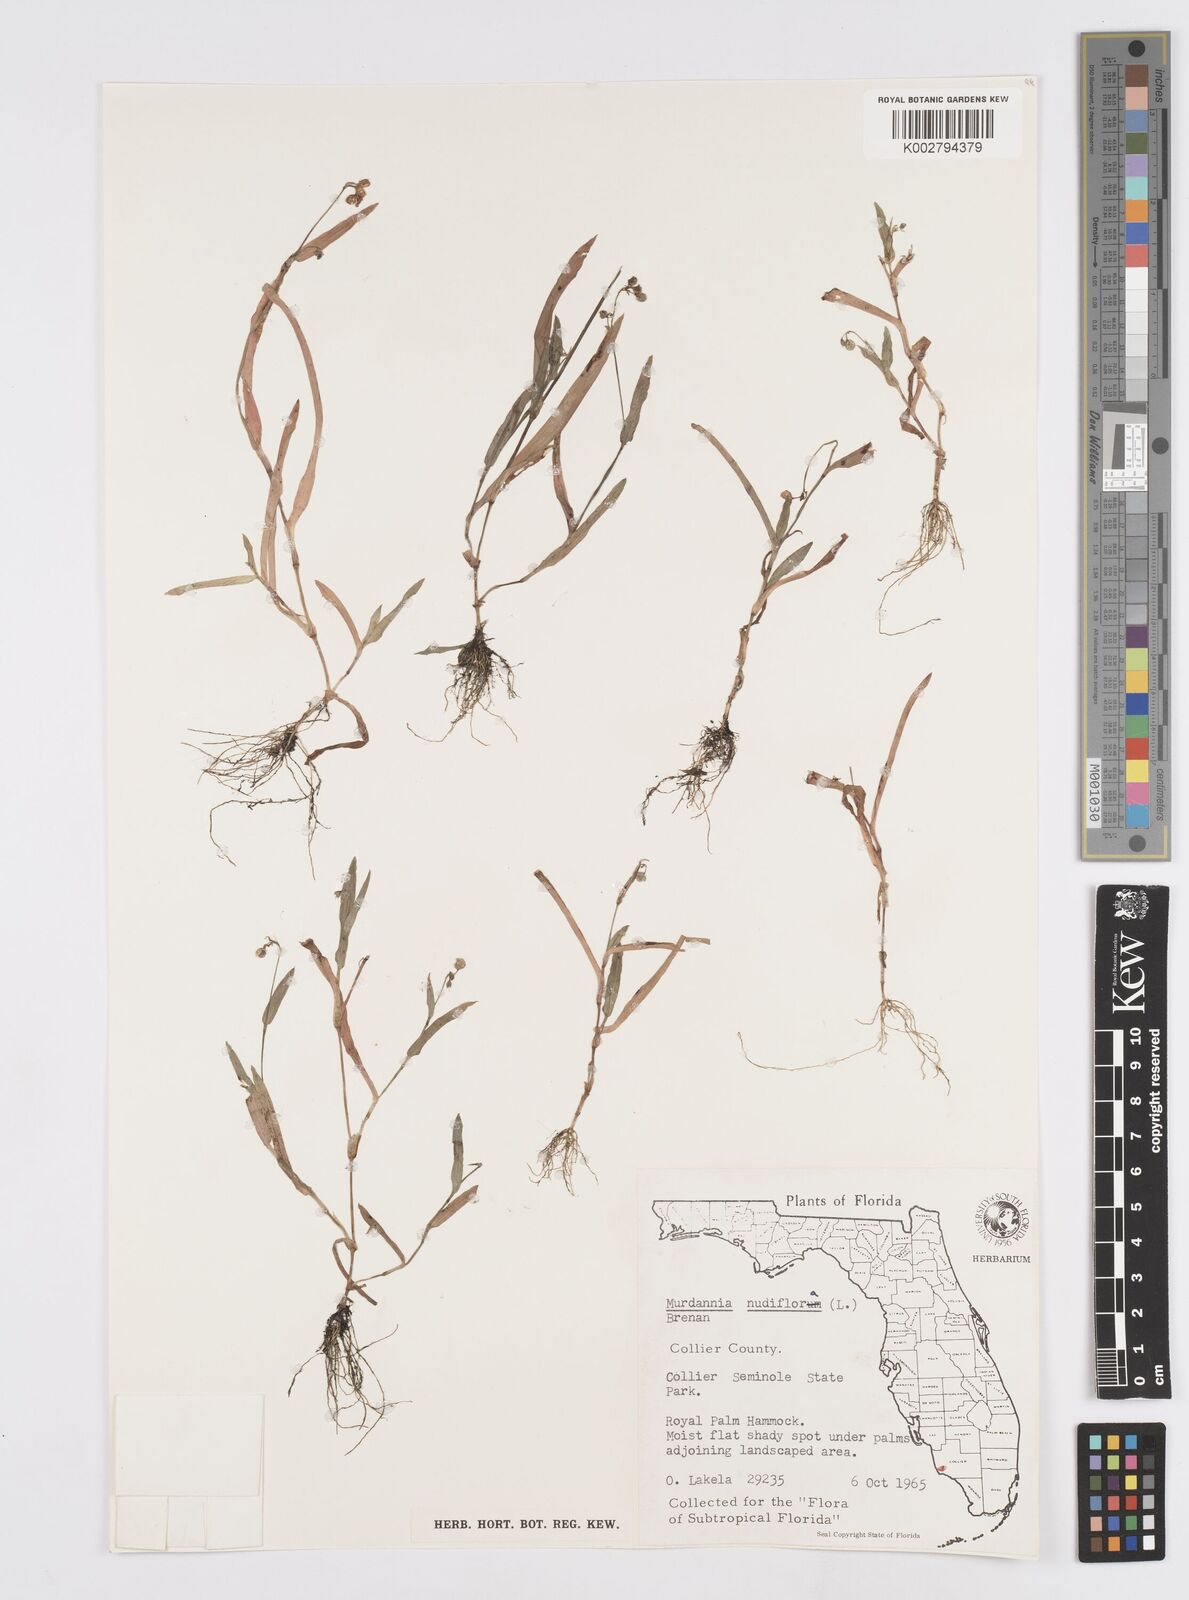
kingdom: Plantae
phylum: Tracheophyta
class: Liliopsida
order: Commelinales
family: Commelinaceae
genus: Murdannia
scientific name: Murdannia nudiflora
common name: Nakedstem dewflower
